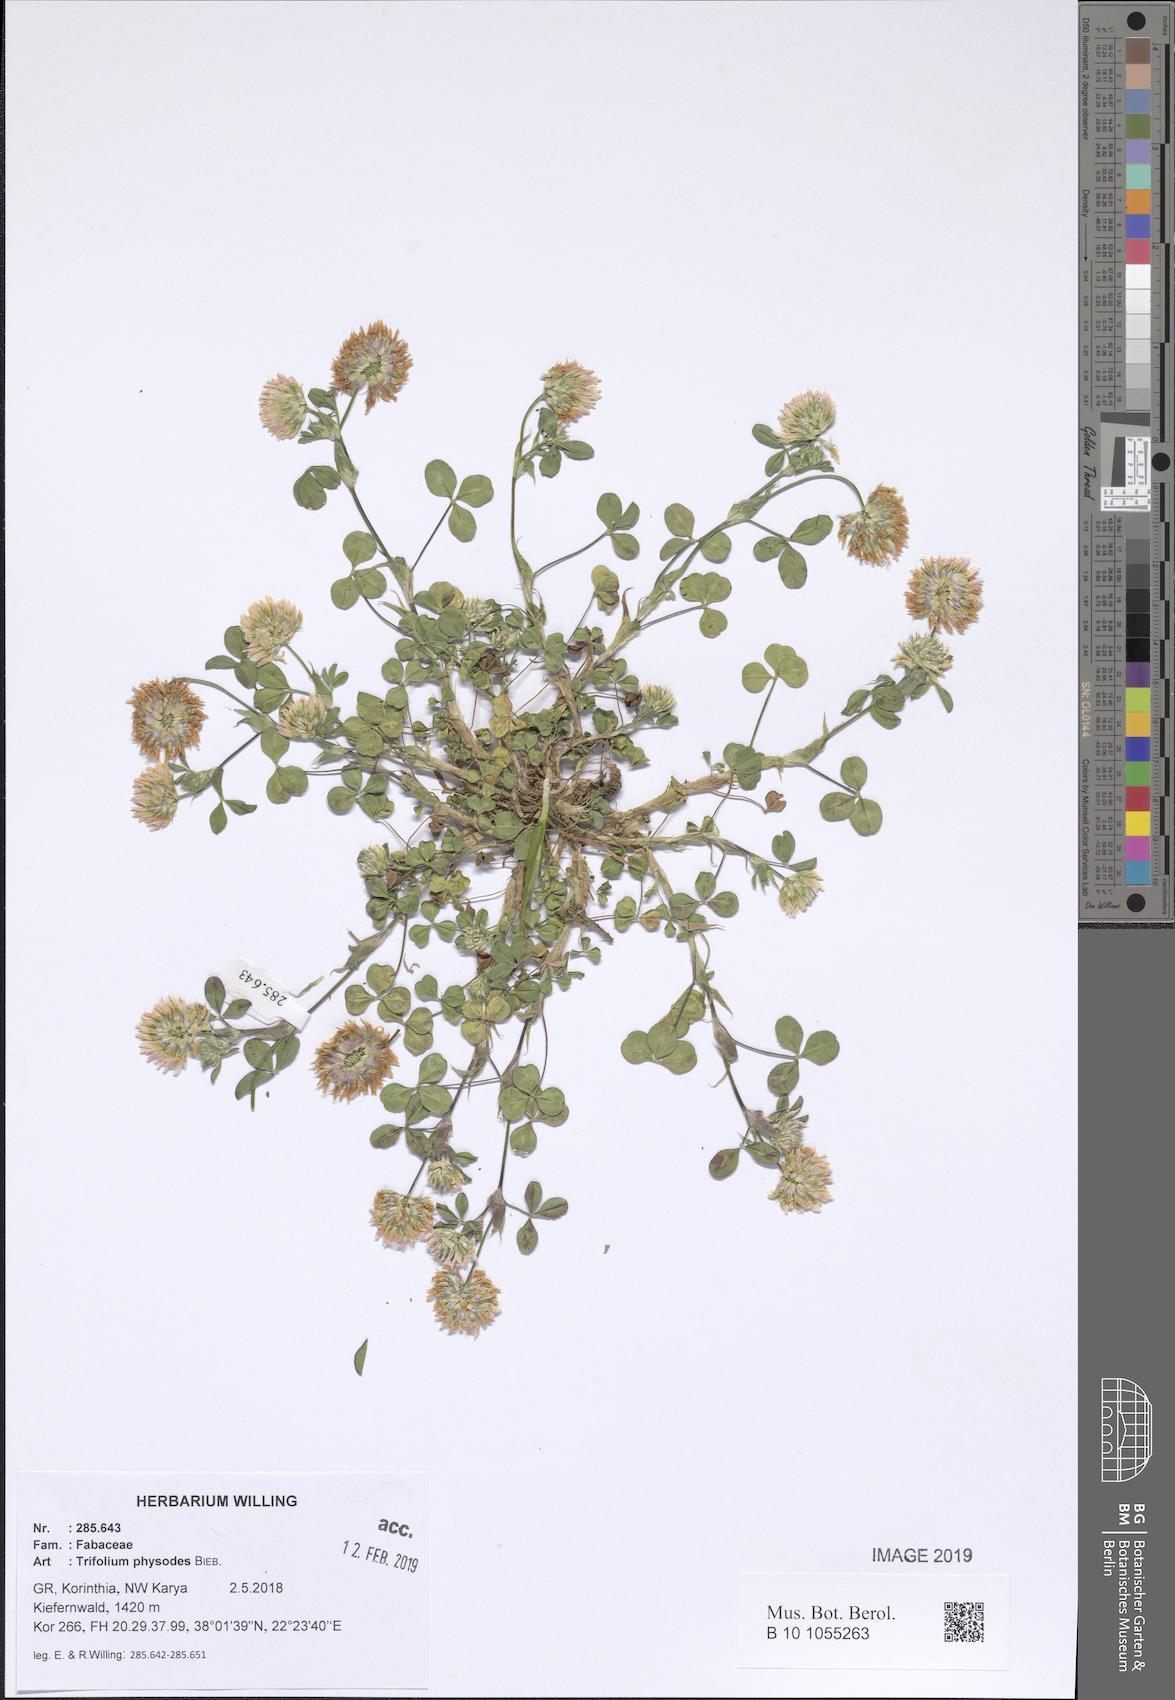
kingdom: Plantae
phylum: Tracheophyta
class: Magnoliopsida
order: Fabales
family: Fabaceae
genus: Trifolium
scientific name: Trifolium physodes
